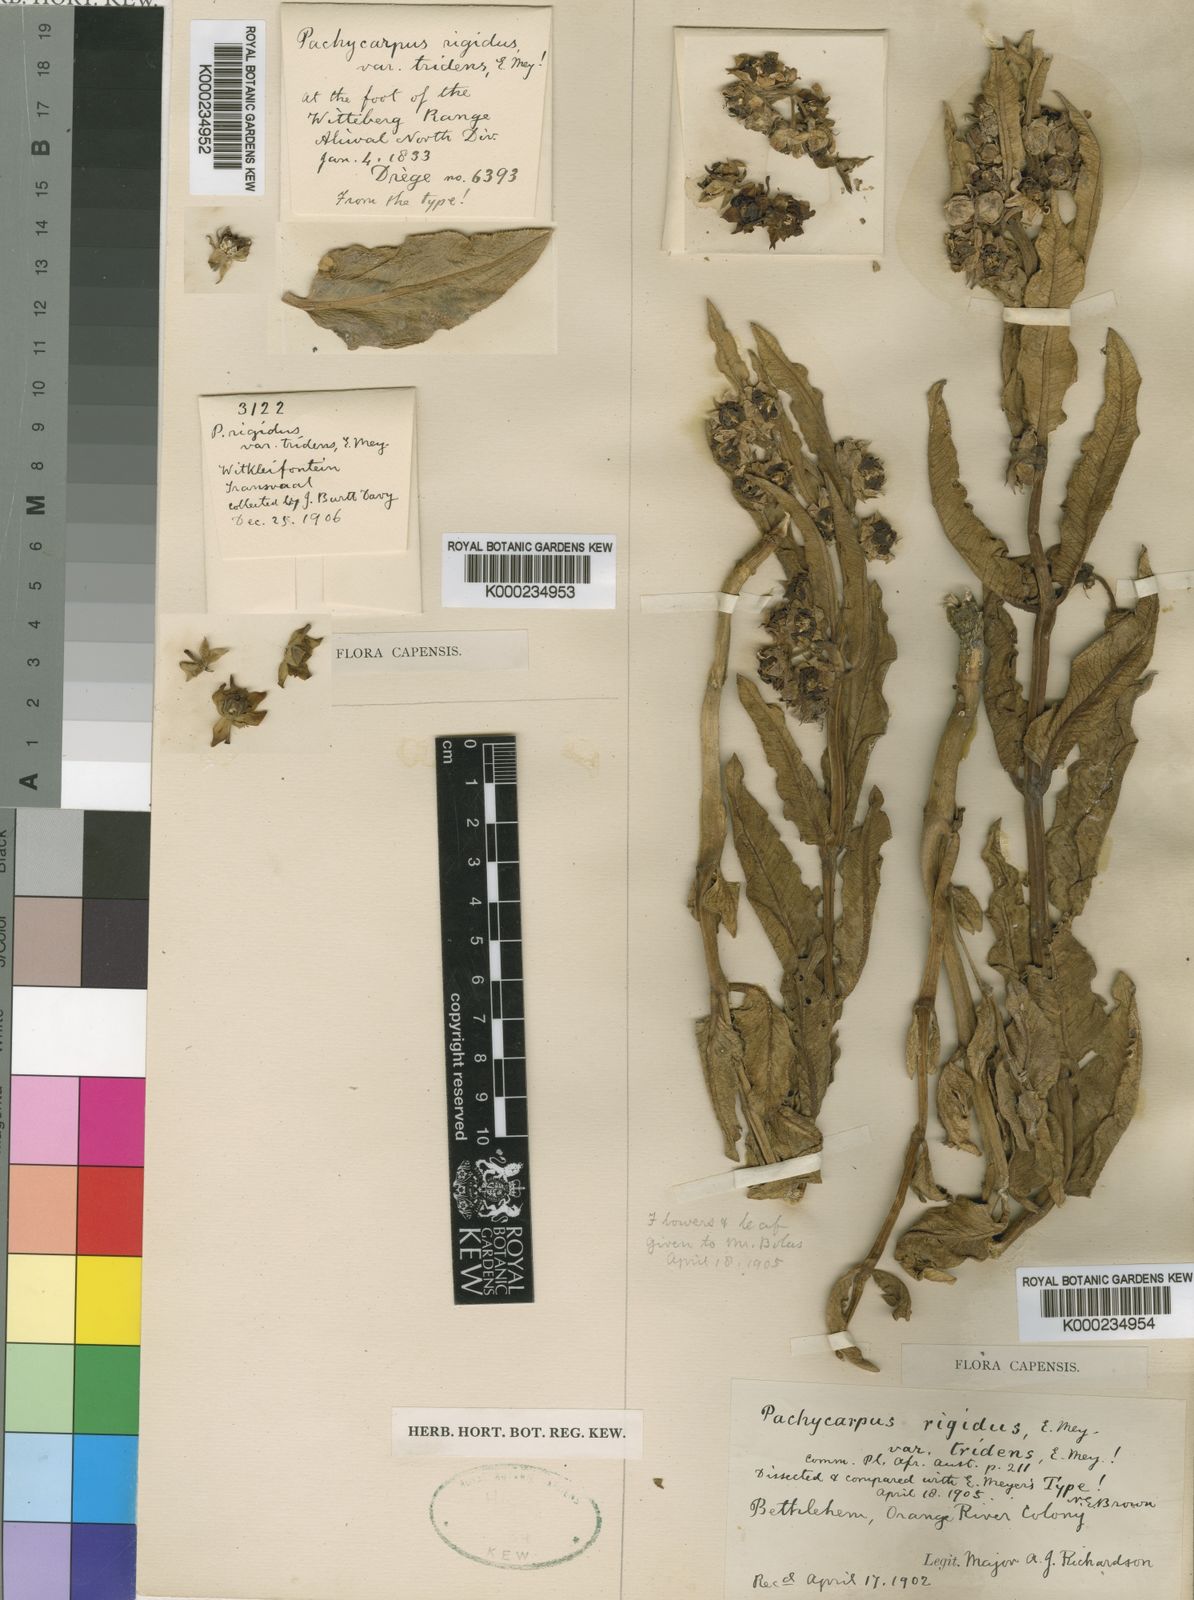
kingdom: Plantae
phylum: Tracheophyta
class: Magnoliopsida
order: Gentianales
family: Apocynaceae
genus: Pachycarpus
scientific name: Pachycarpus rigidus
